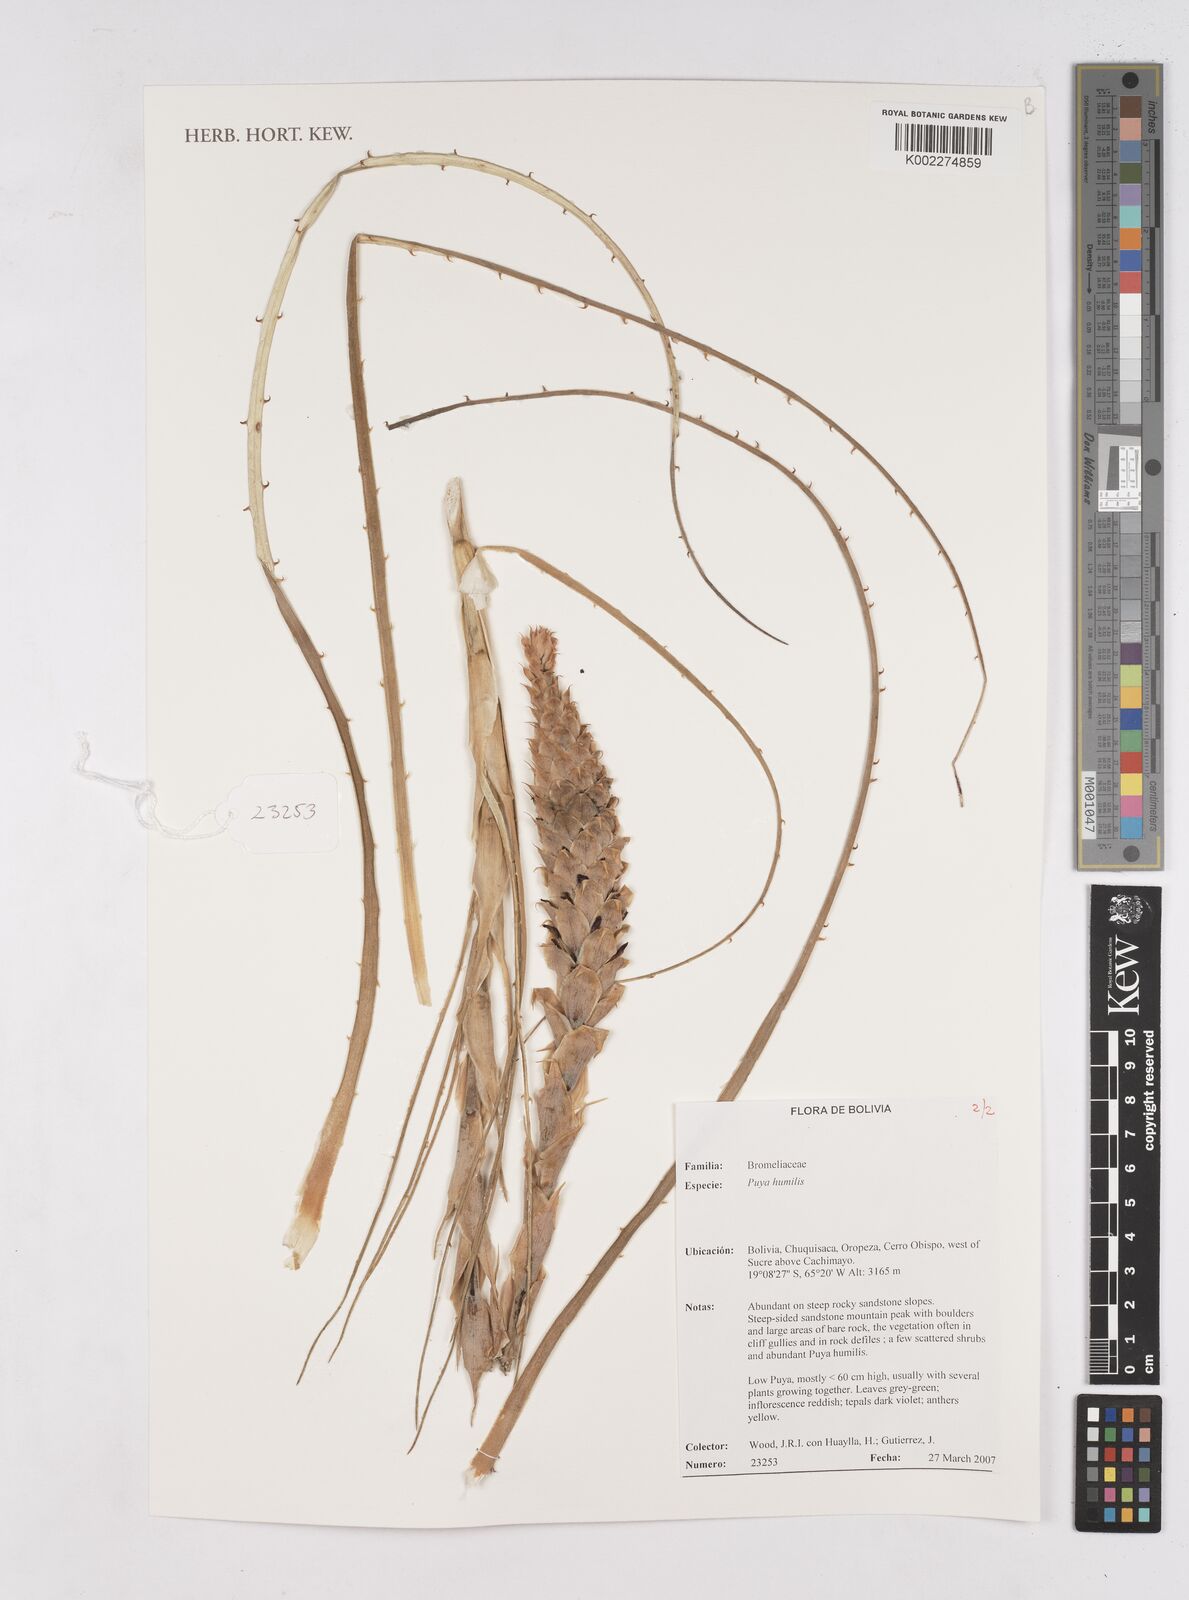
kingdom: Plantae
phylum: Tracheophyta
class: Liliopsida
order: Poales
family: Bromeliaceae
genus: Puya
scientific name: Puya humilis
